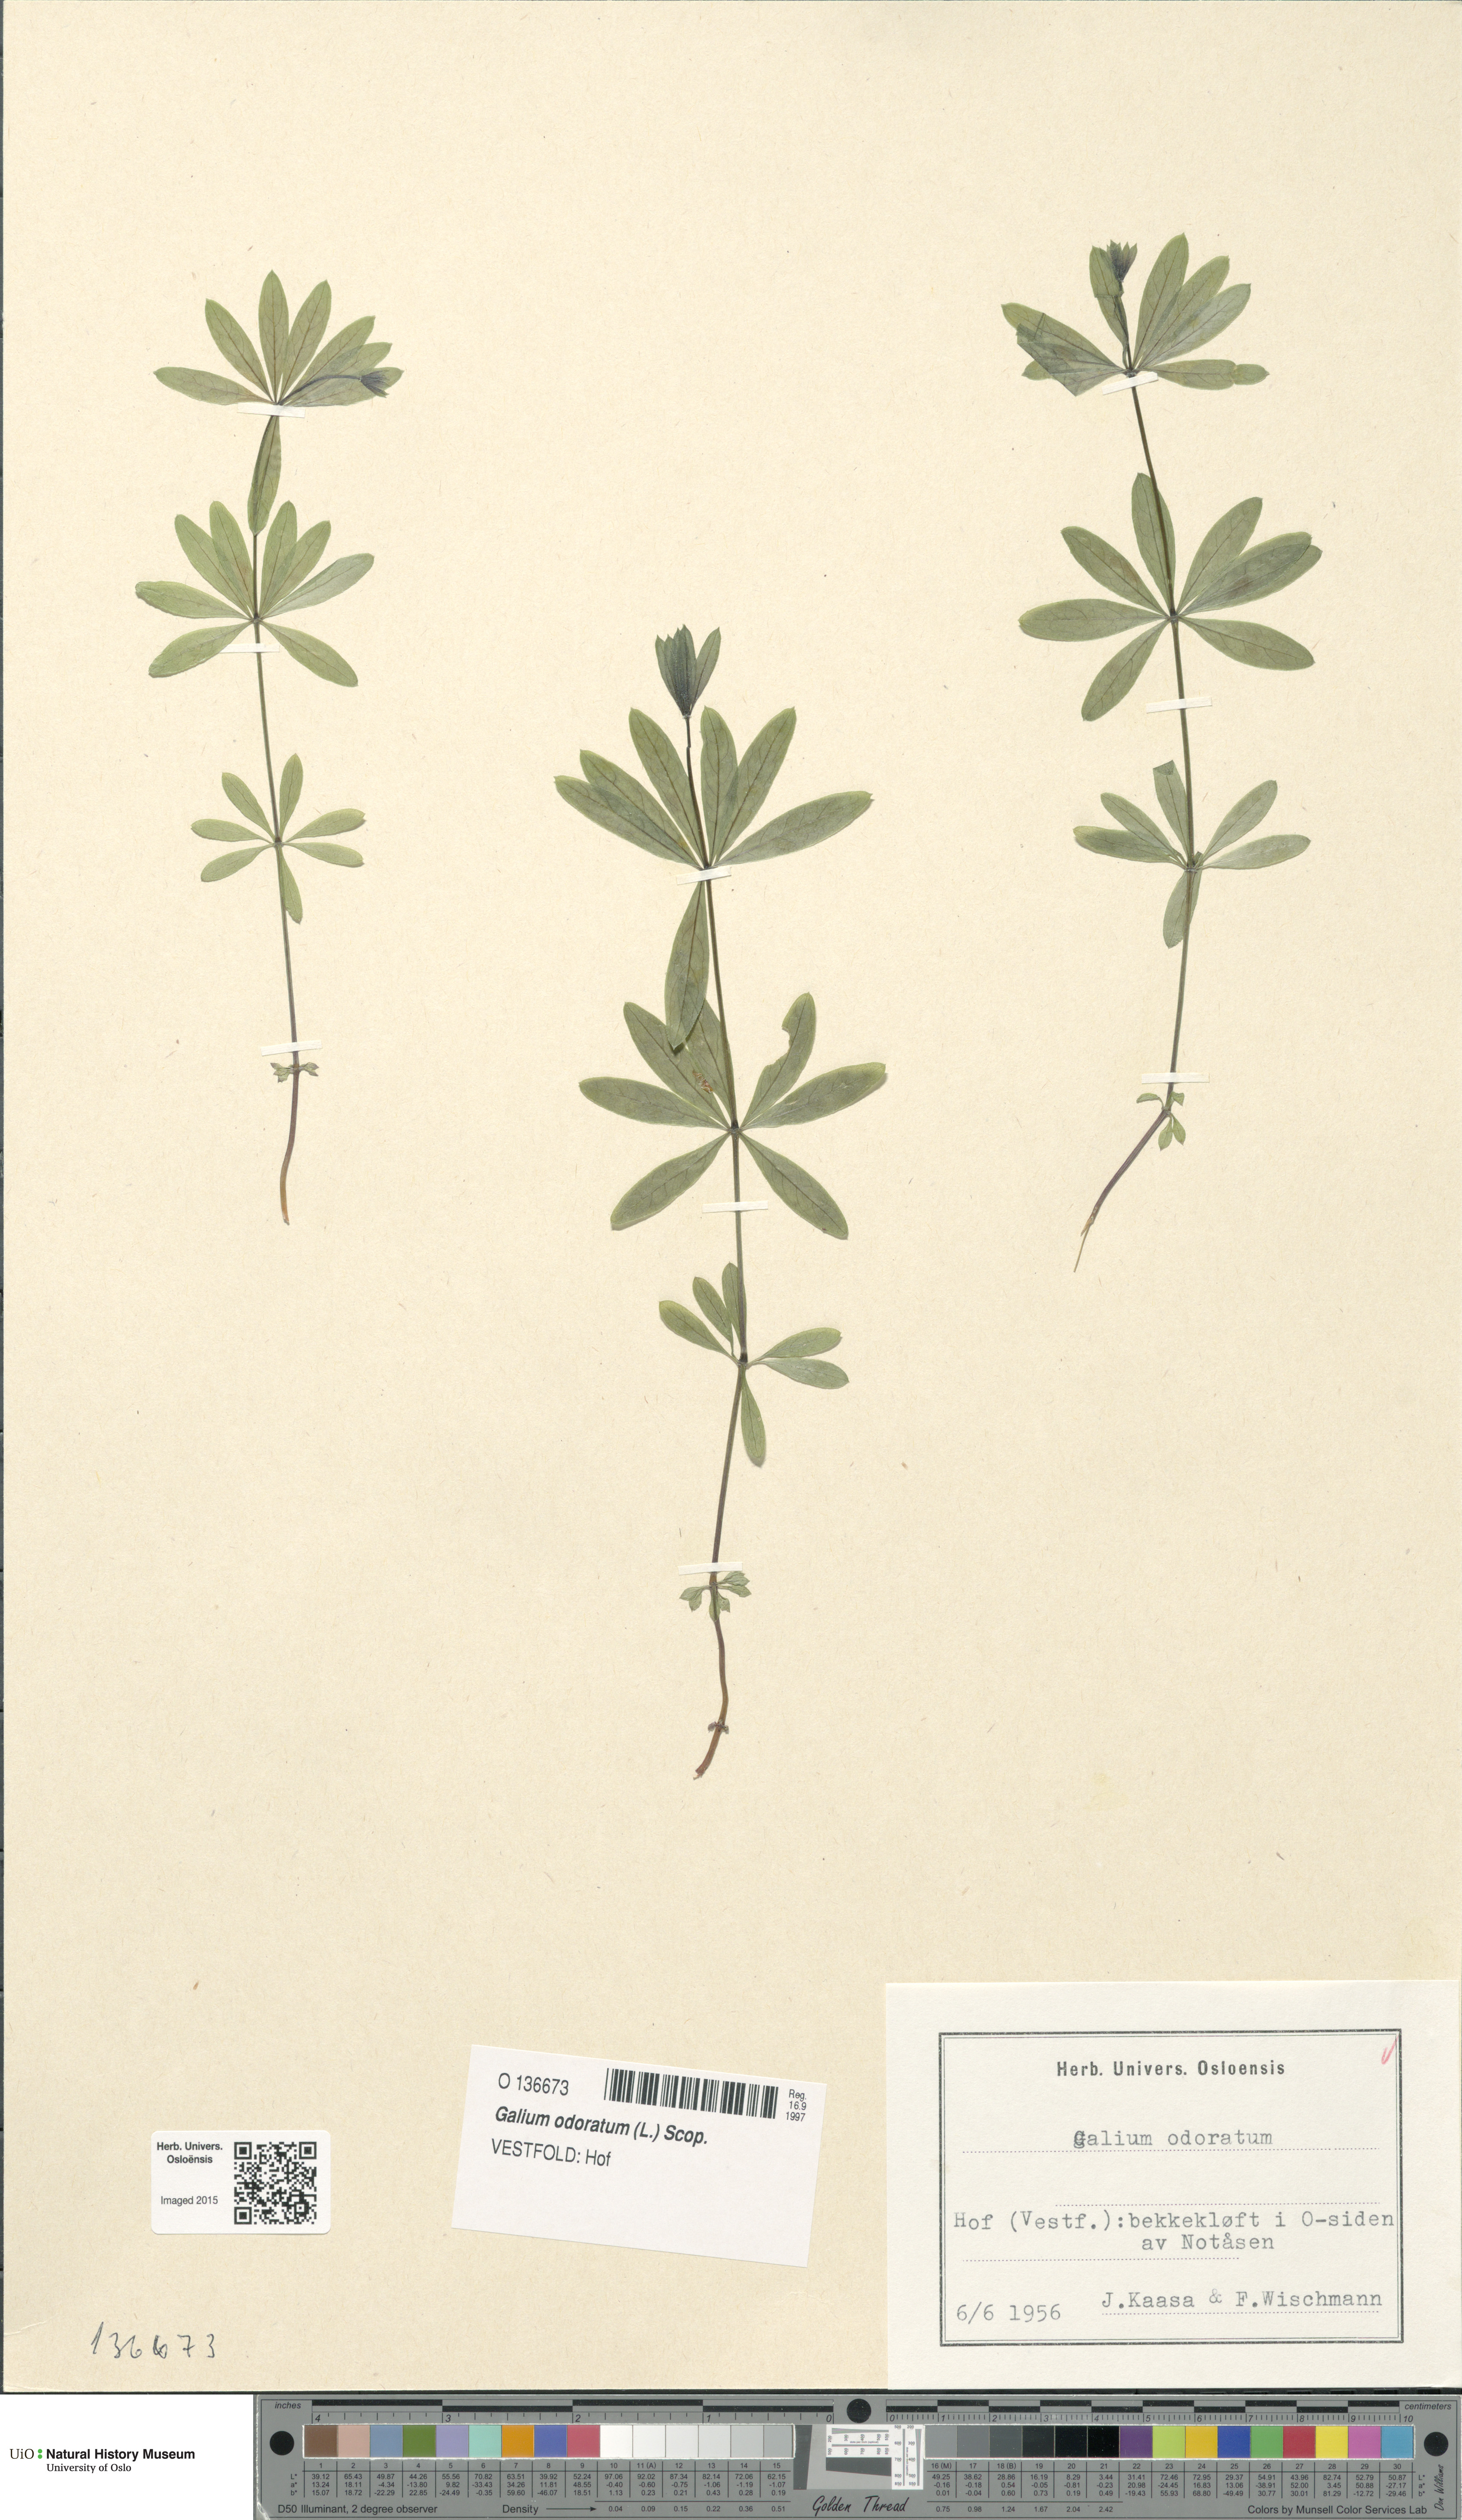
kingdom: Plantae
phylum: Tracheophyta
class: Magnoliopsida
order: Gentianales
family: Rubiaceae
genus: Galium
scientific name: Galium odoratum
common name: Sweet woodruff
